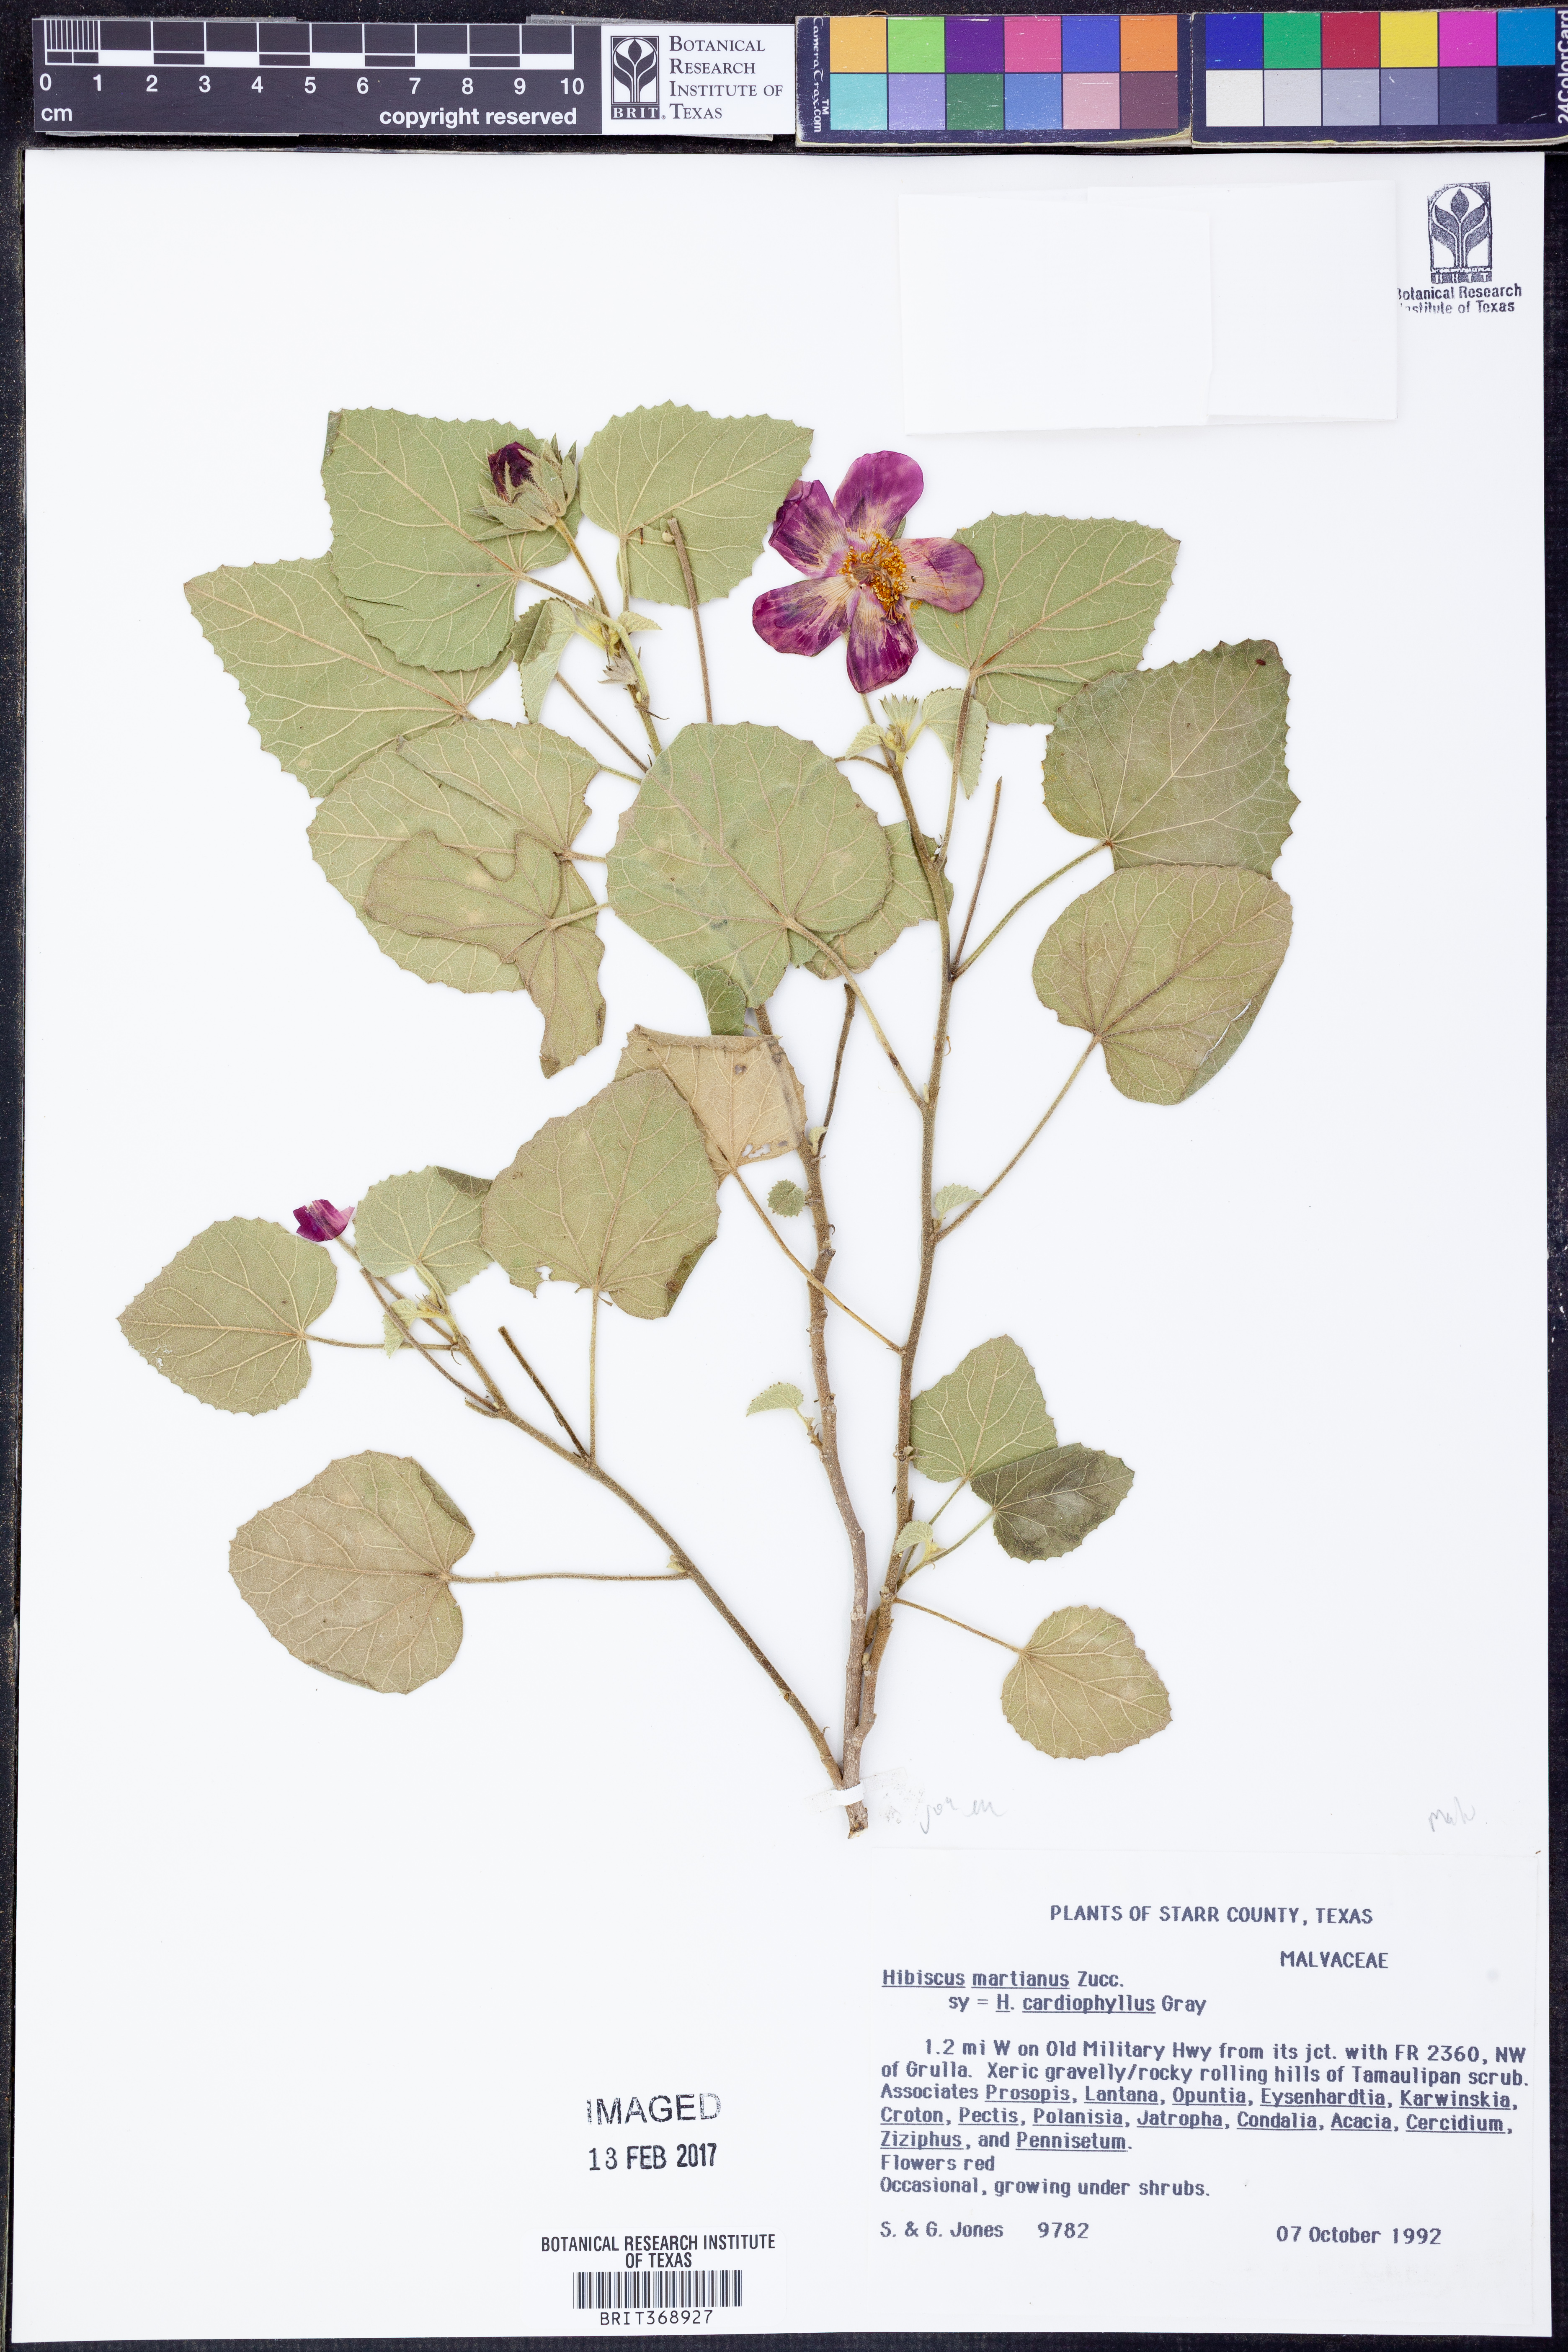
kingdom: Plantae
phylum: Tracheophyta
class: Magnoliopsida
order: Malvales
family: Malvaceae
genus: Hibiscus
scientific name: Hibiscus martianus
